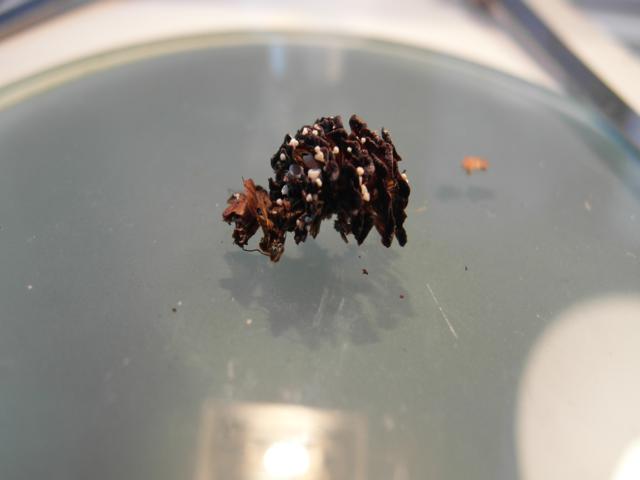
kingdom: Fungi
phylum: Ascomycota
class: Leotiomycetes
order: Helotiales
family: Lachnaceae
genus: Lachnum
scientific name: Lachnum virgineum
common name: jomfru-frynseskive
